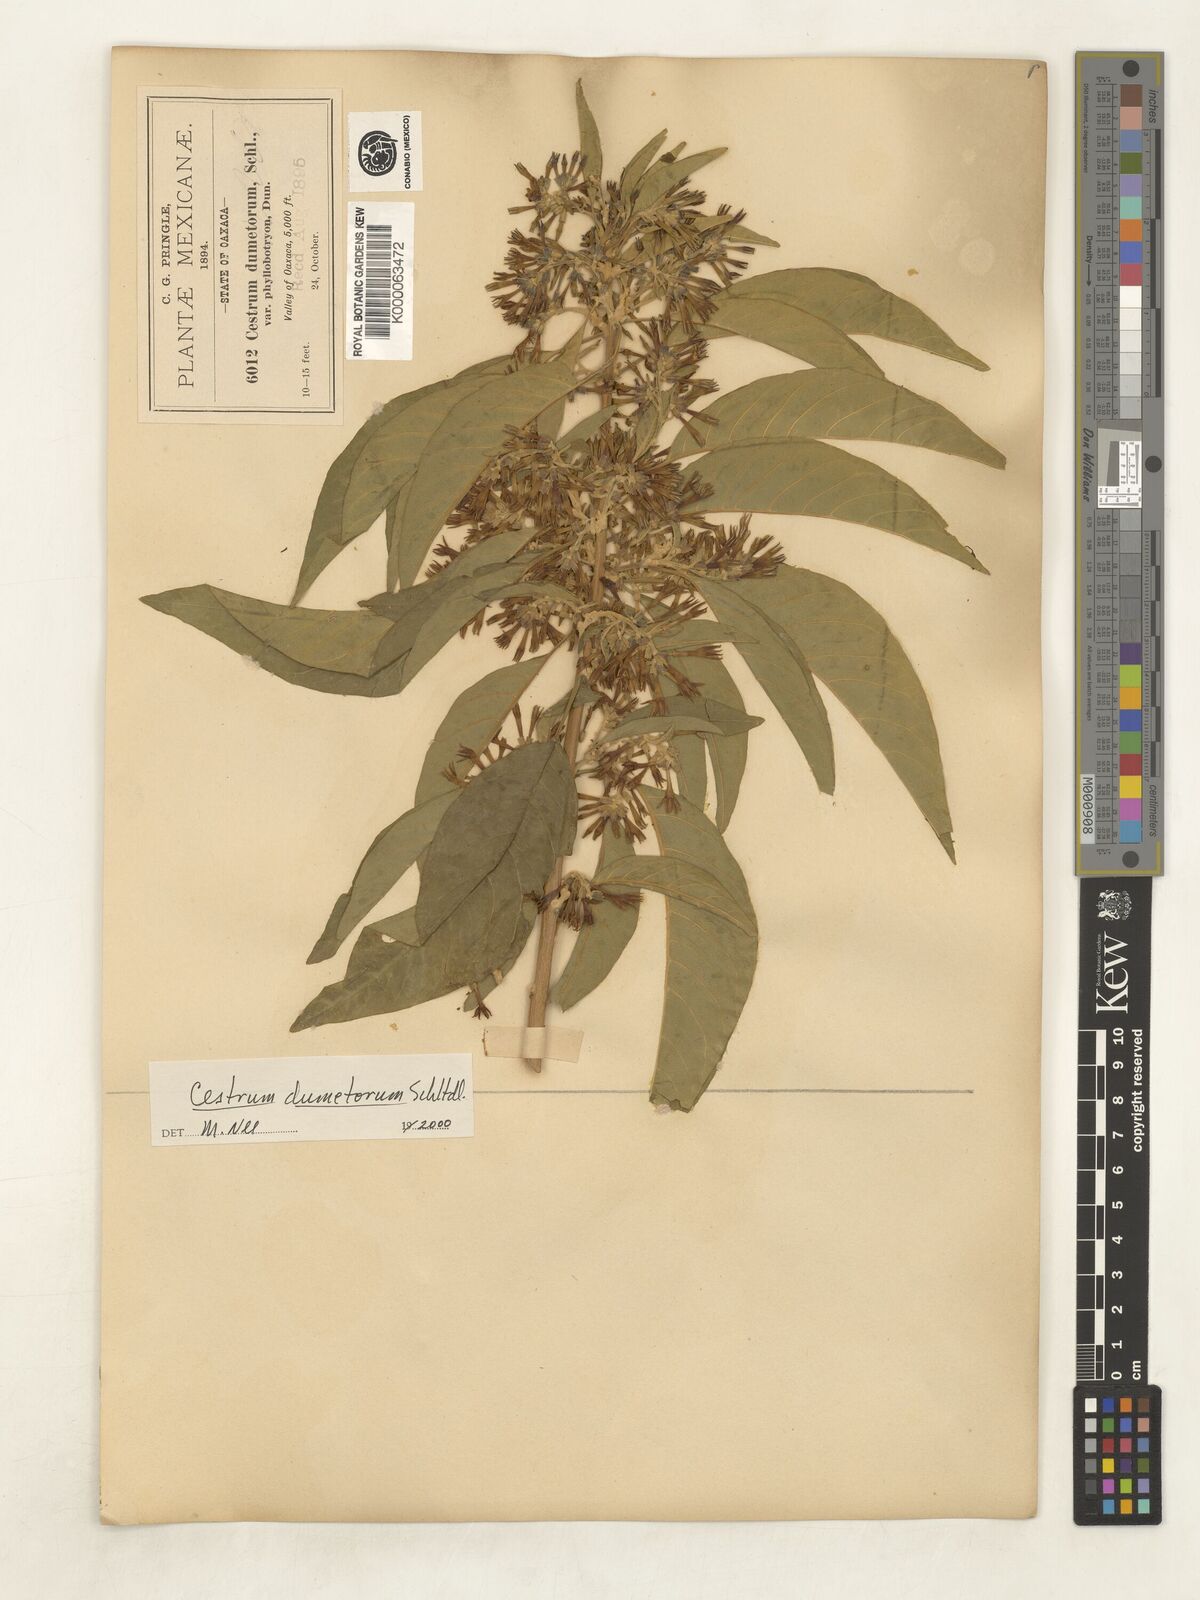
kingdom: Plantae
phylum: Tracheophyta
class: Magnoliopsida
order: Solanales
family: Solanaceae
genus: Cestrum
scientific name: Cestrum dumetorum
